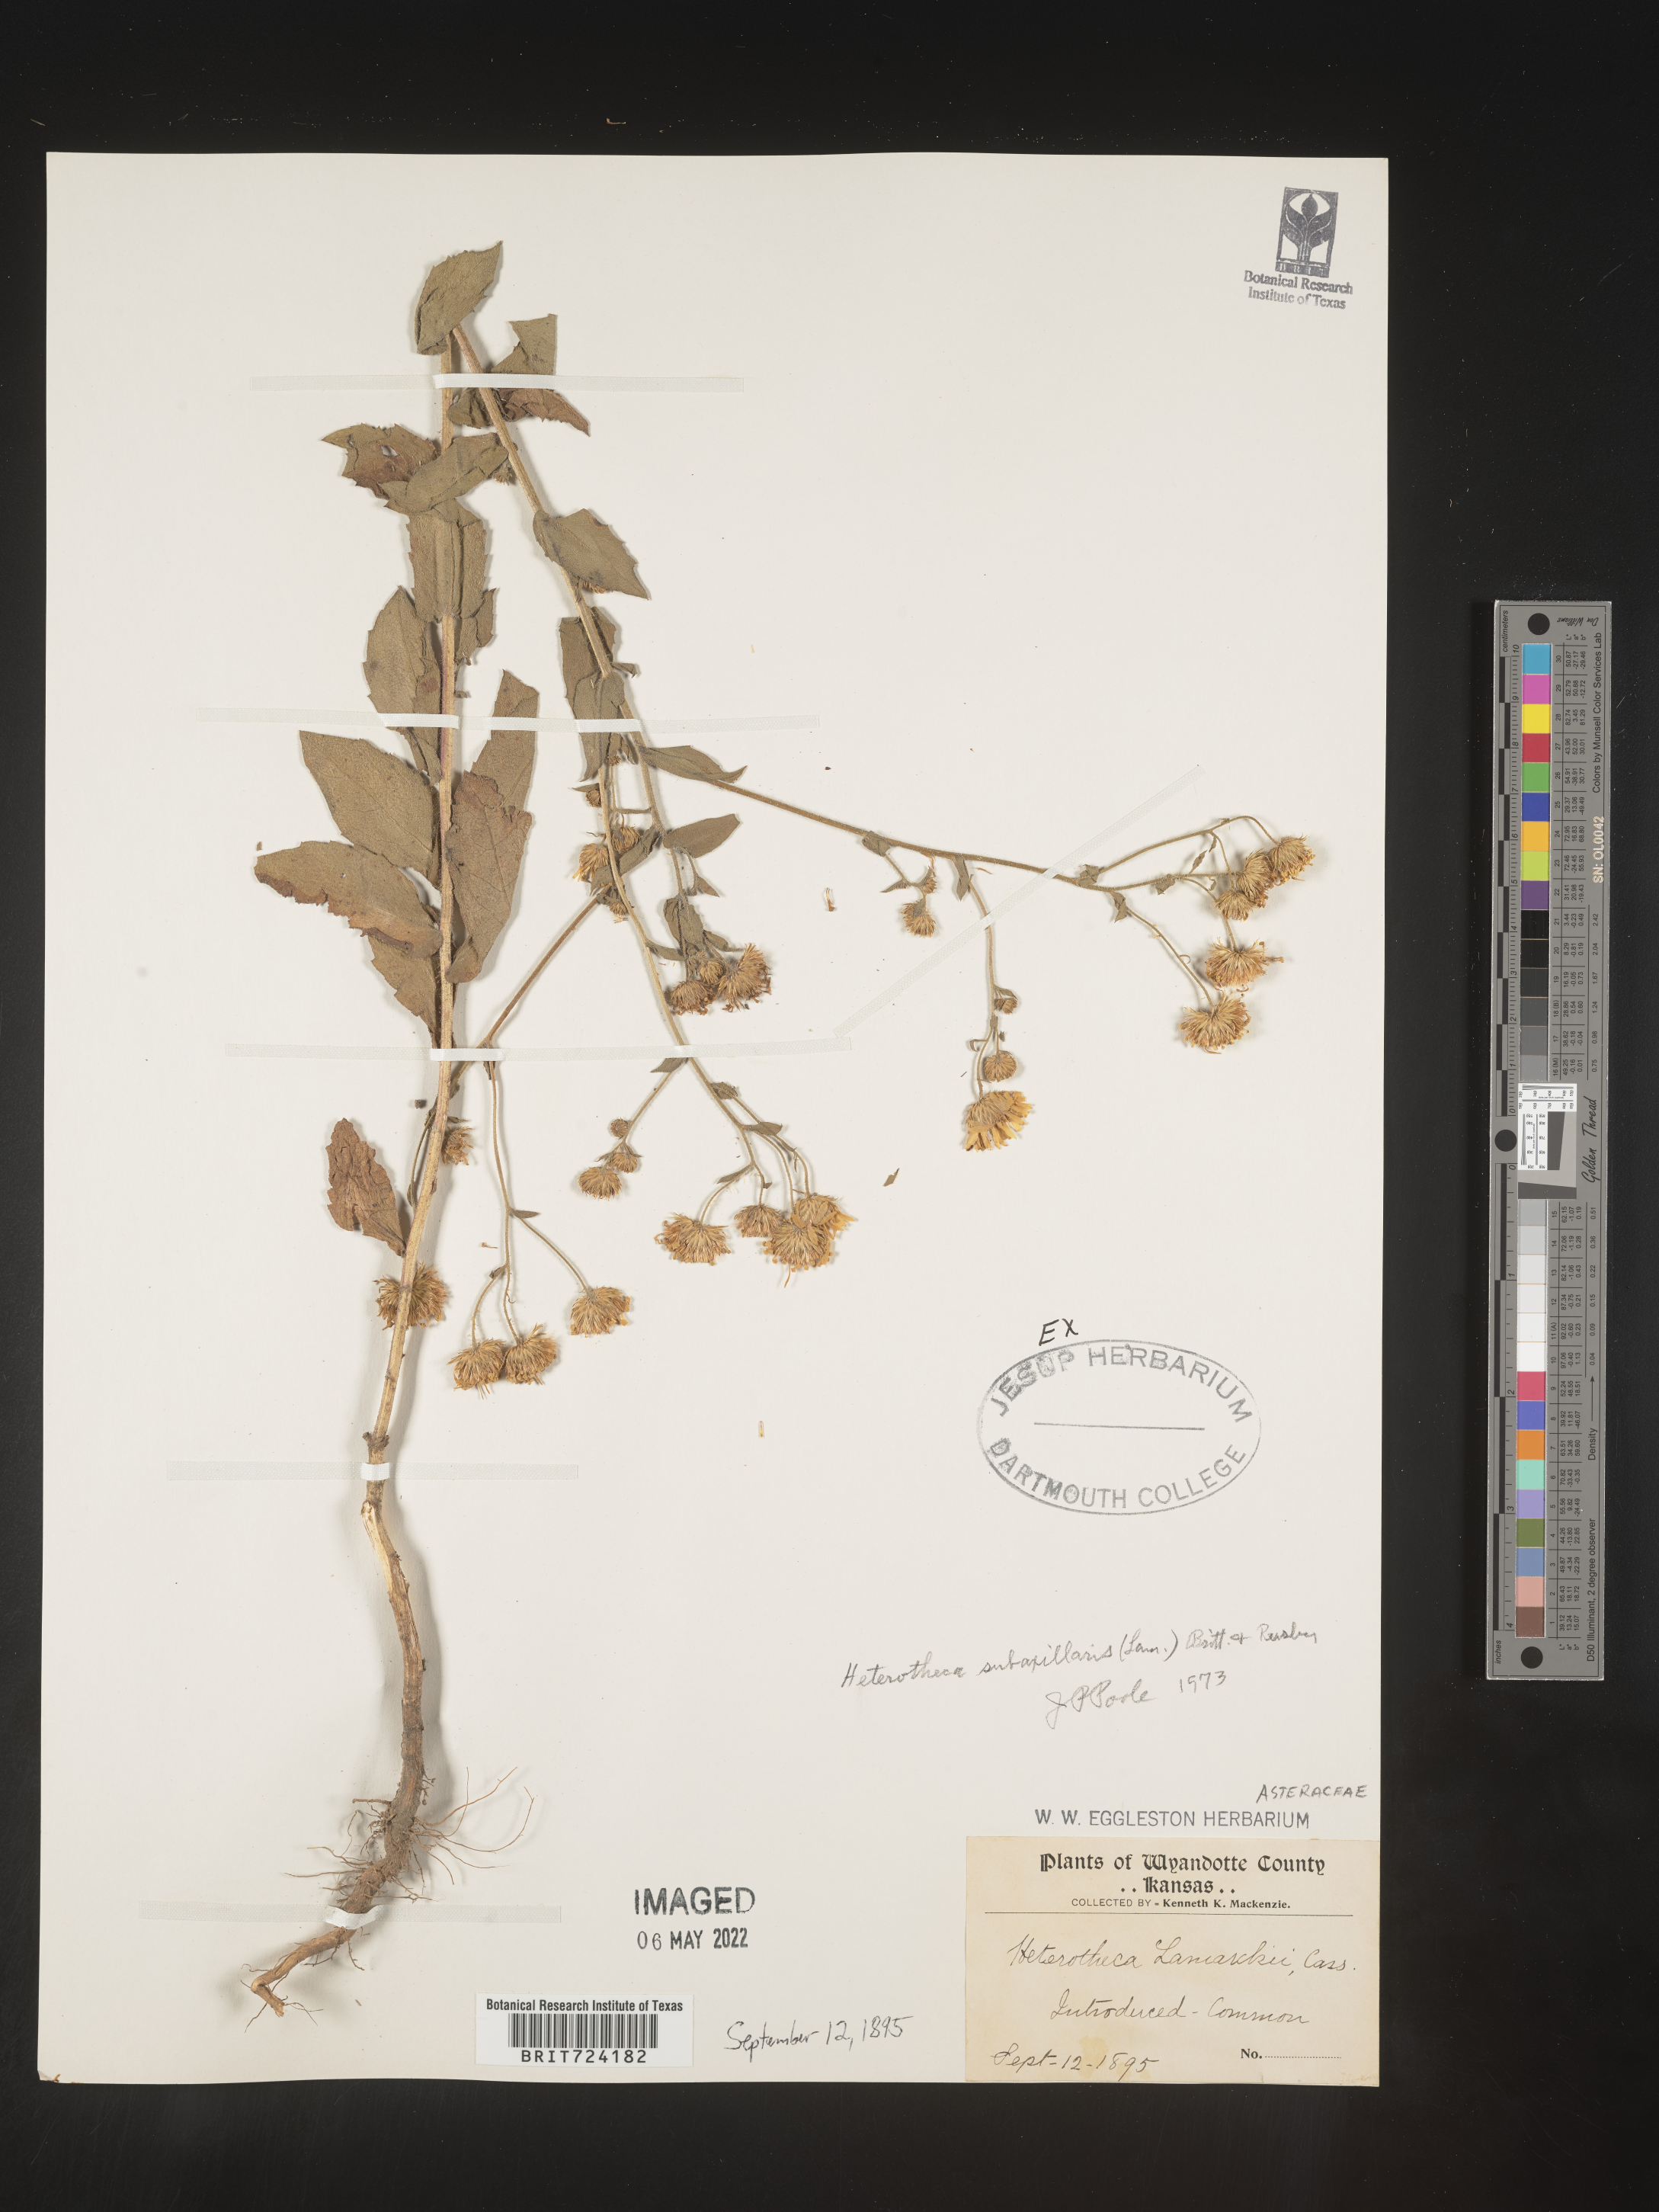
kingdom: Plantae
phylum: Tracheophyta
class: Magnoliopsida
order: Asterales
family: Asteraceae
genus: Heterotheca
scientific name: Heterotheca subaxillaris
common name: Camphorweed
